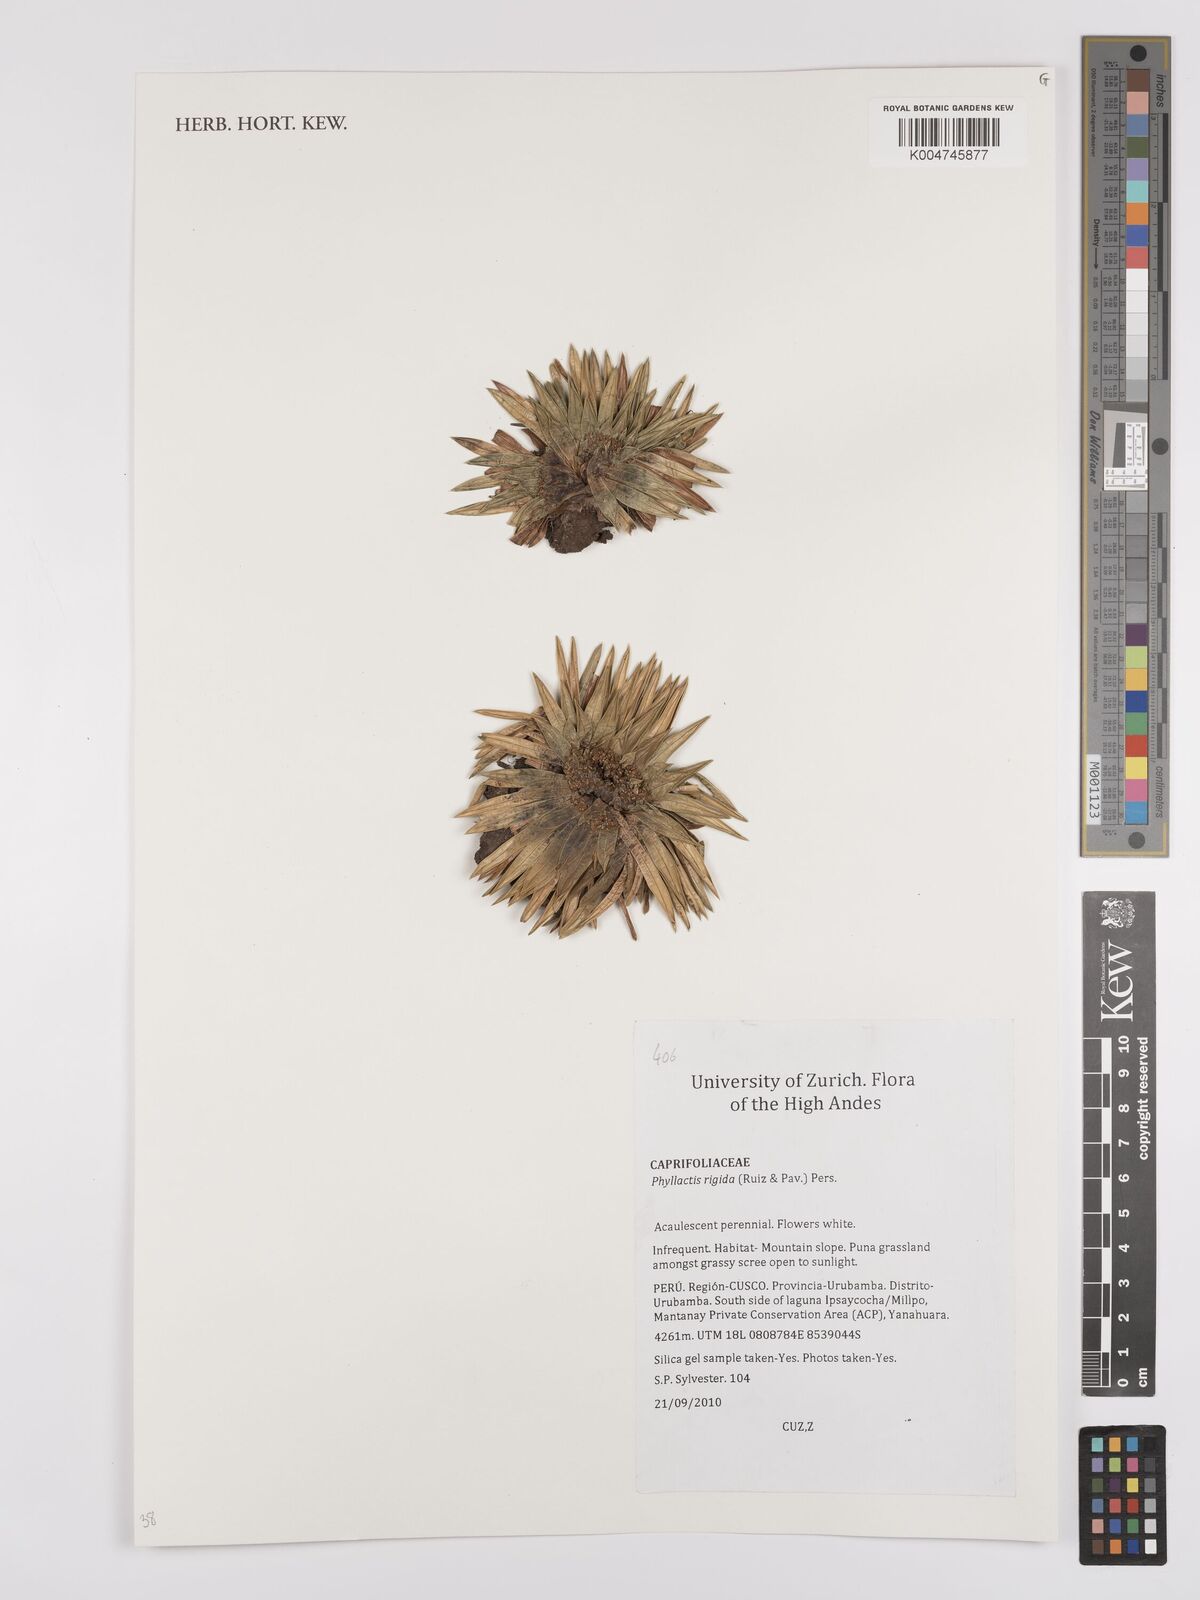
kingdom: Plantae
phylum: Tracheophyta
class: Magnoliopsida
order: Dipsacales
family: Caprifoliaceae
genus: Valeriana
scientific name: Valeriana rigida
